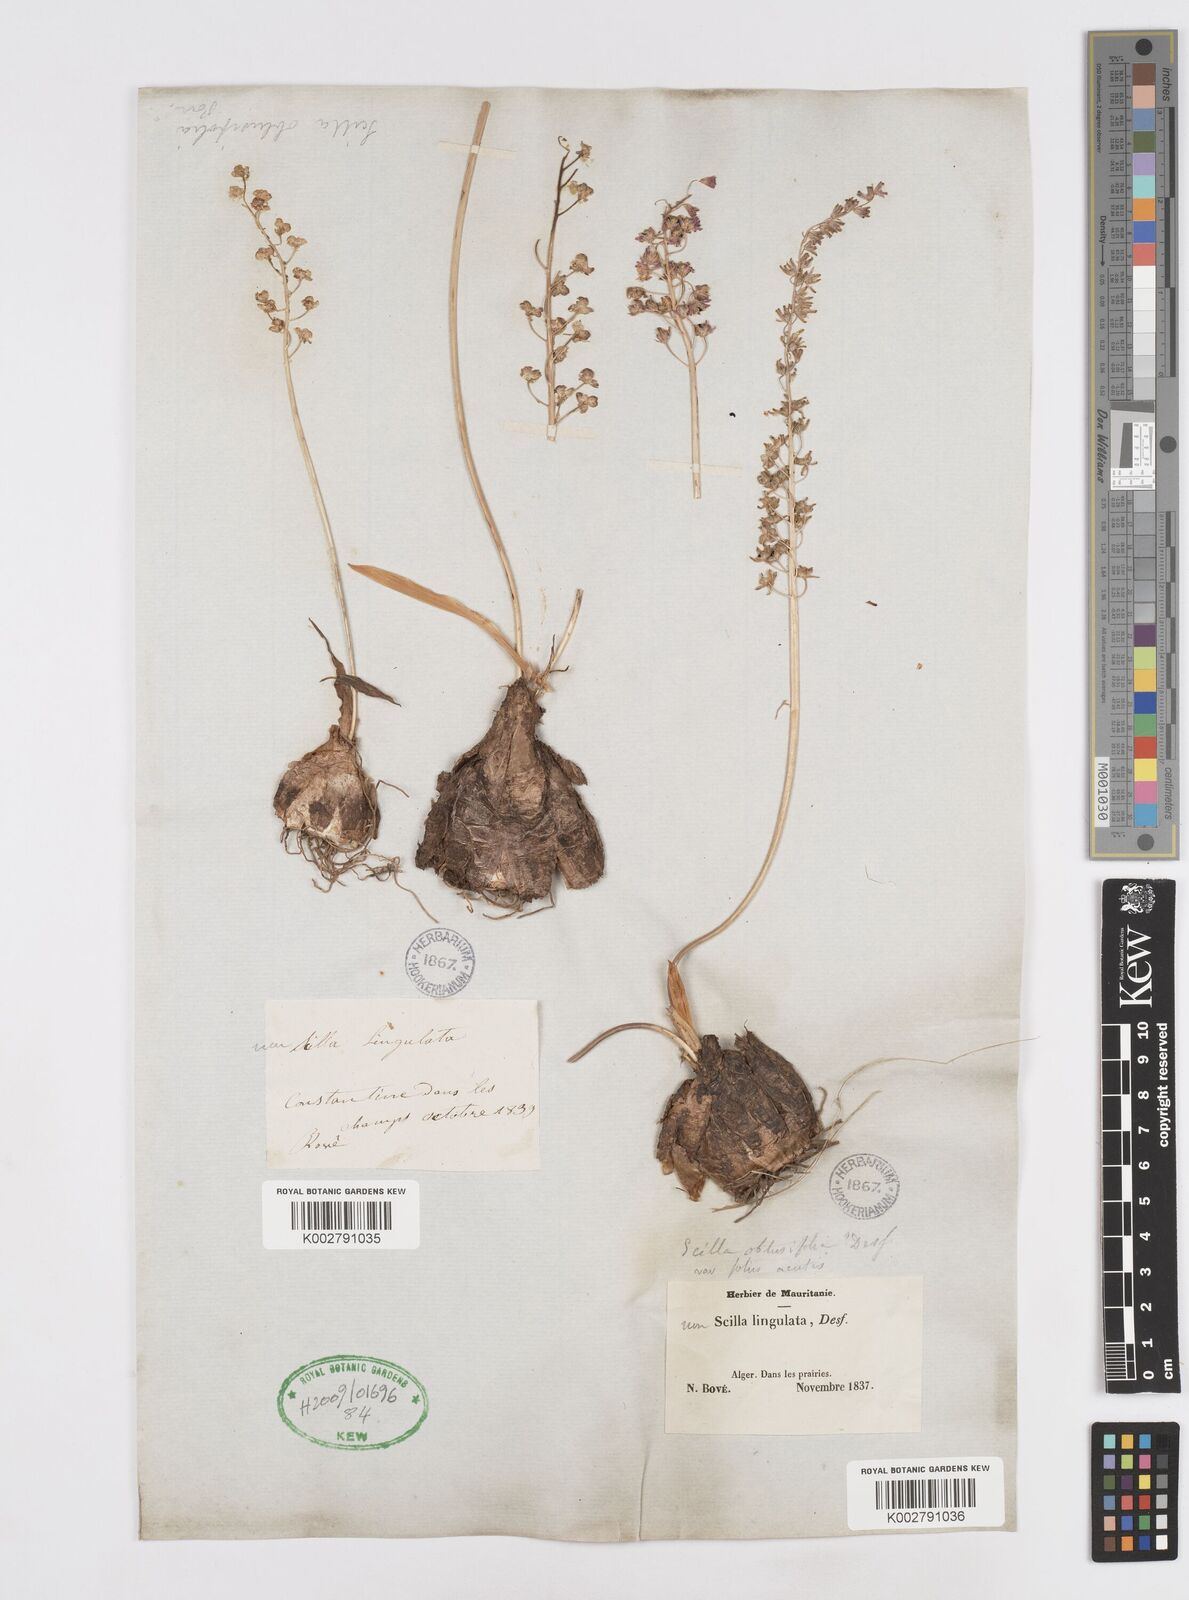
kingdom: Plantae
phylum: Tracheophyta
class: Liliopsida
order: Asparagales
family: Asparagaceae
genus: Prospero
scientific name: Prospero obtusifolium
